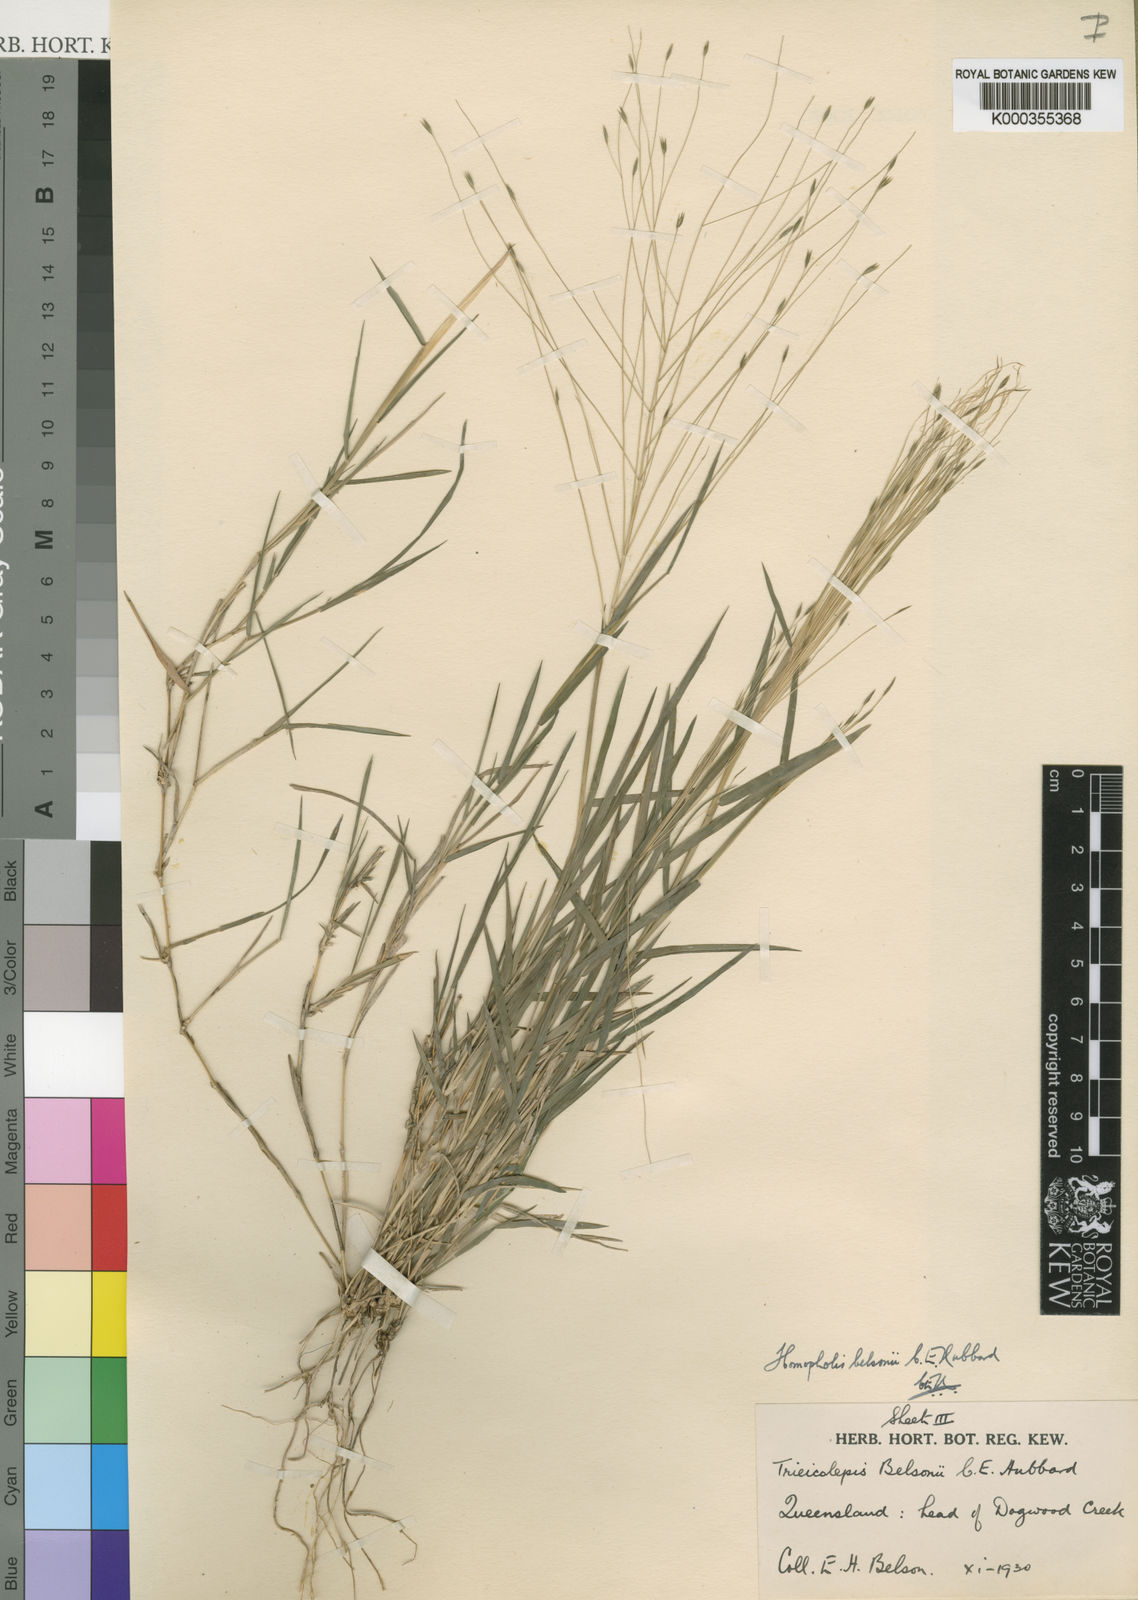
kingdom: Plantae
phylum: Tracheophyta
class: Liliopsida
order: Poales
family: Poaceae
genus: Homopholis
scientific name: Homopholis belsonii
